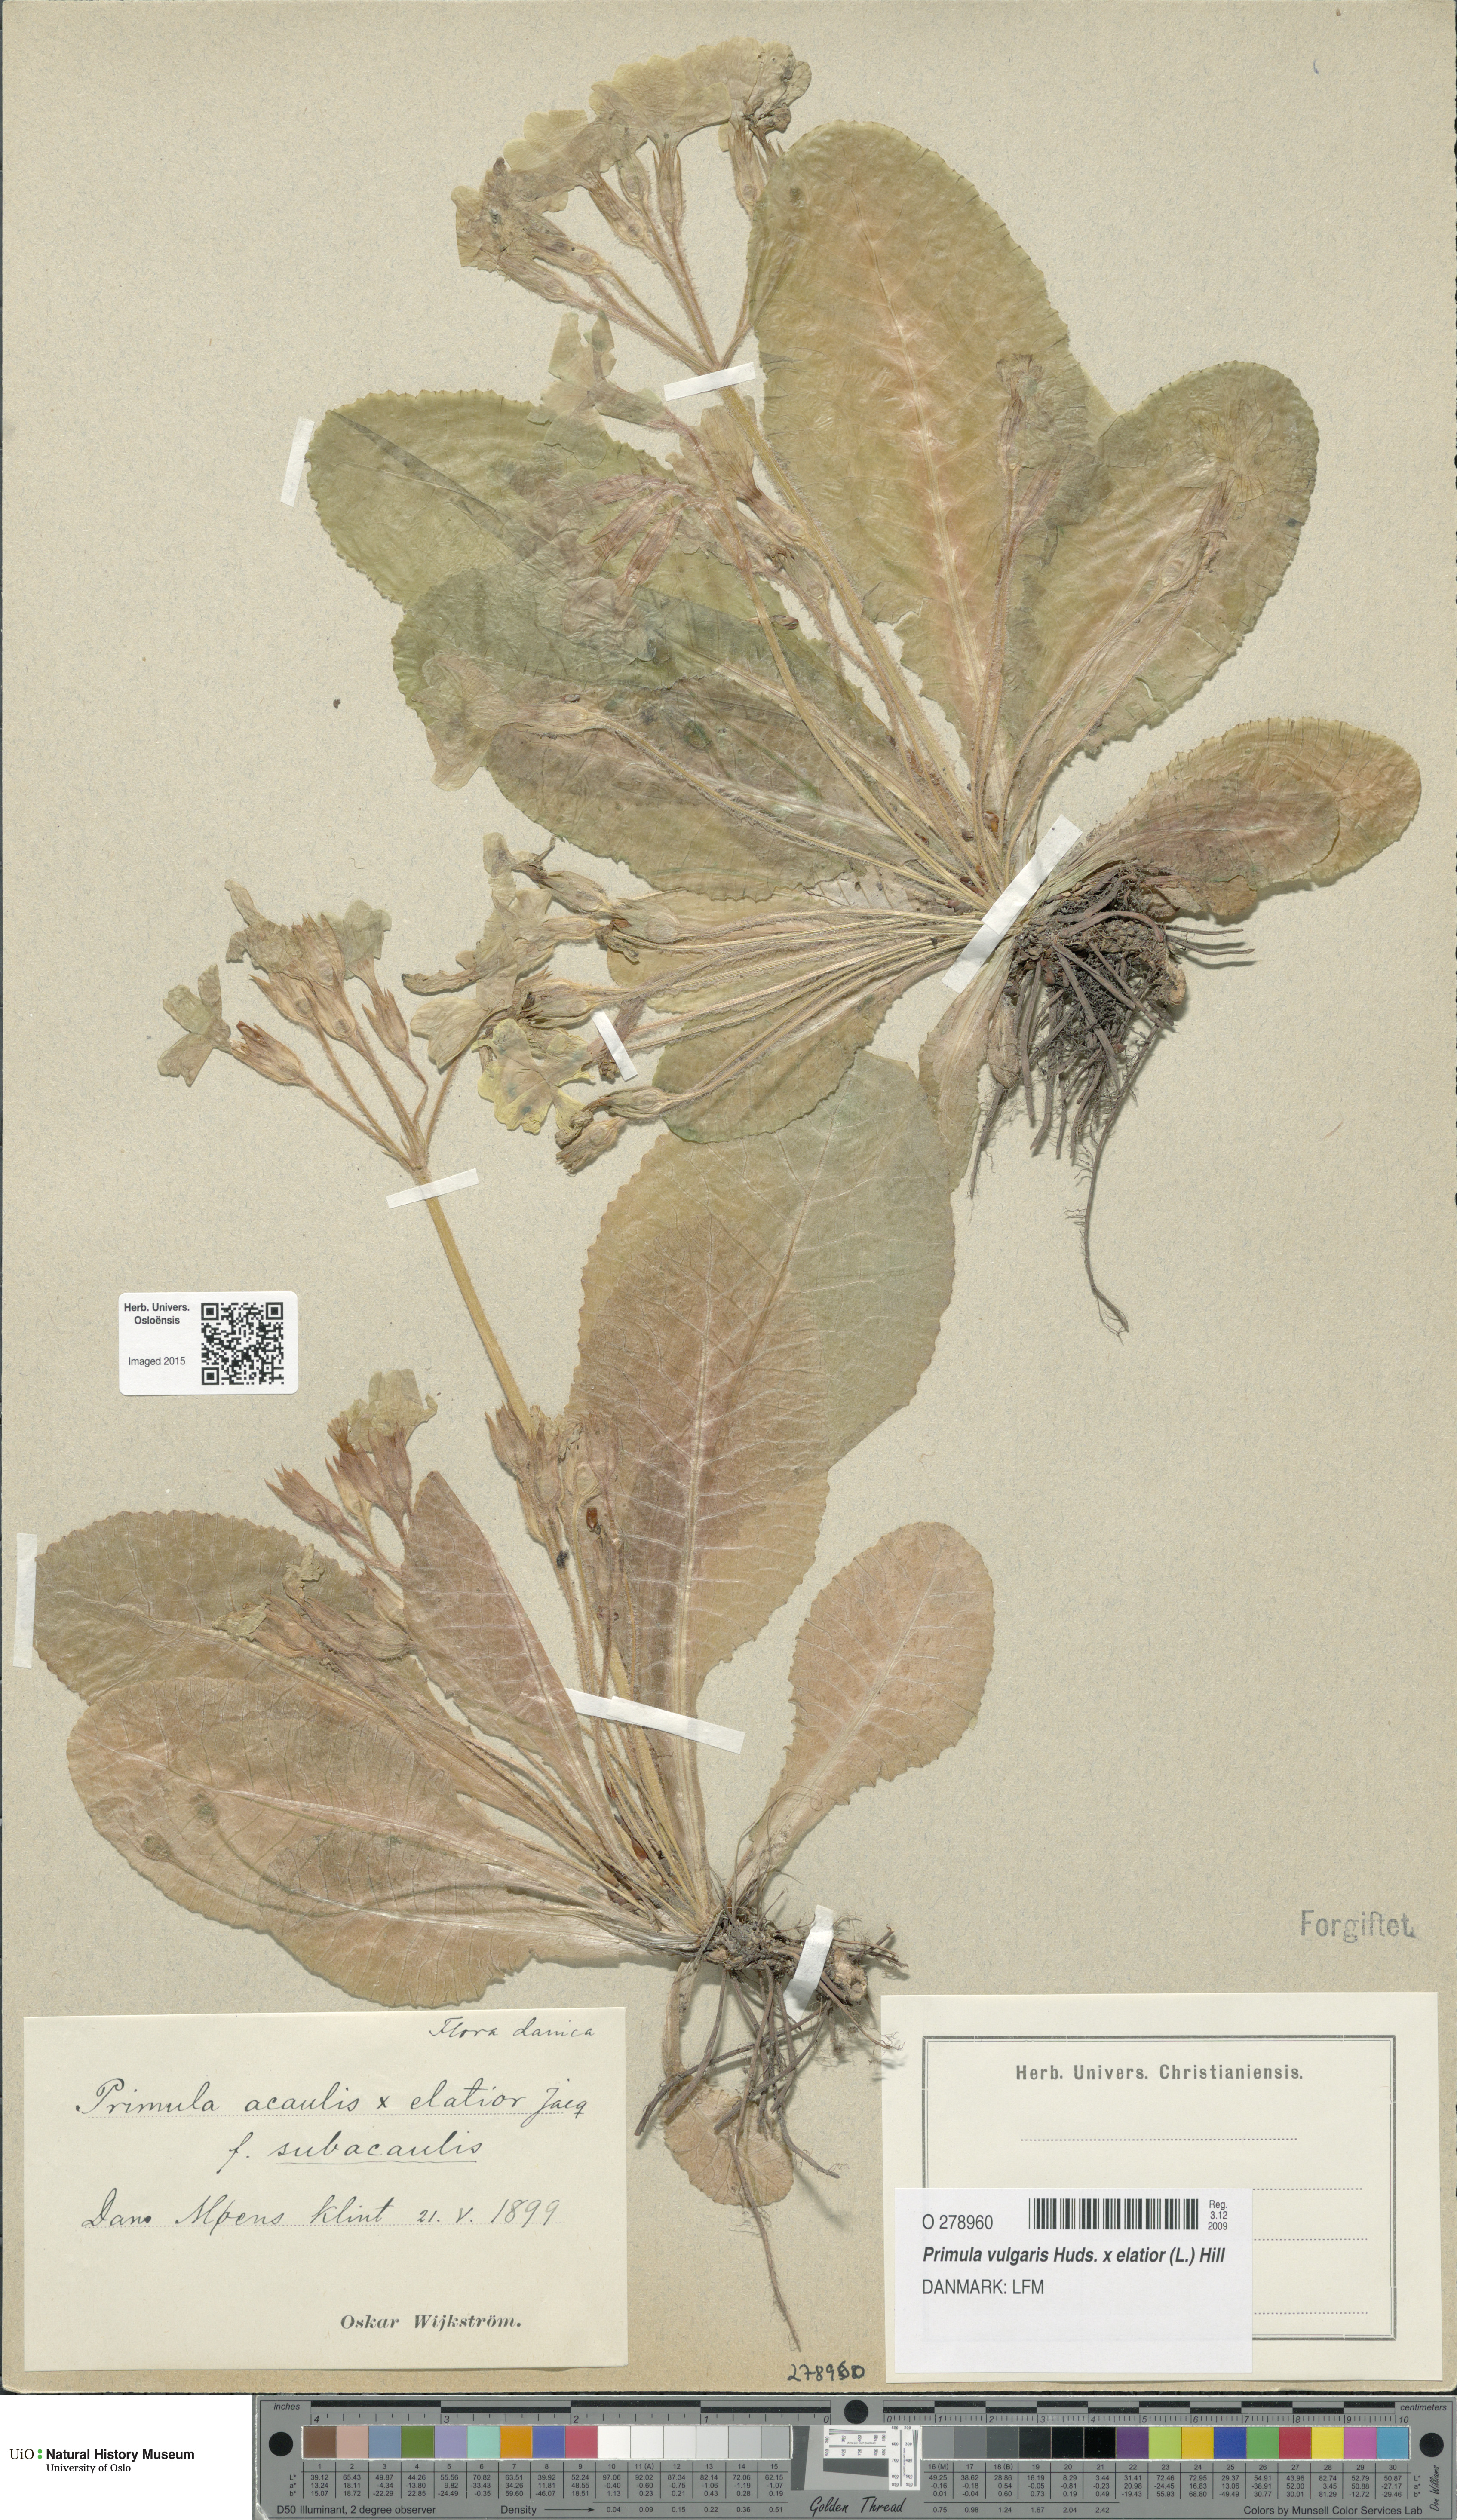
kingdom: Plantae
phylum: Tracheophyta
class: Magnoliopsida
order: Ericales
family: Primulaceae
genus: Primula
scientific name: Primula
